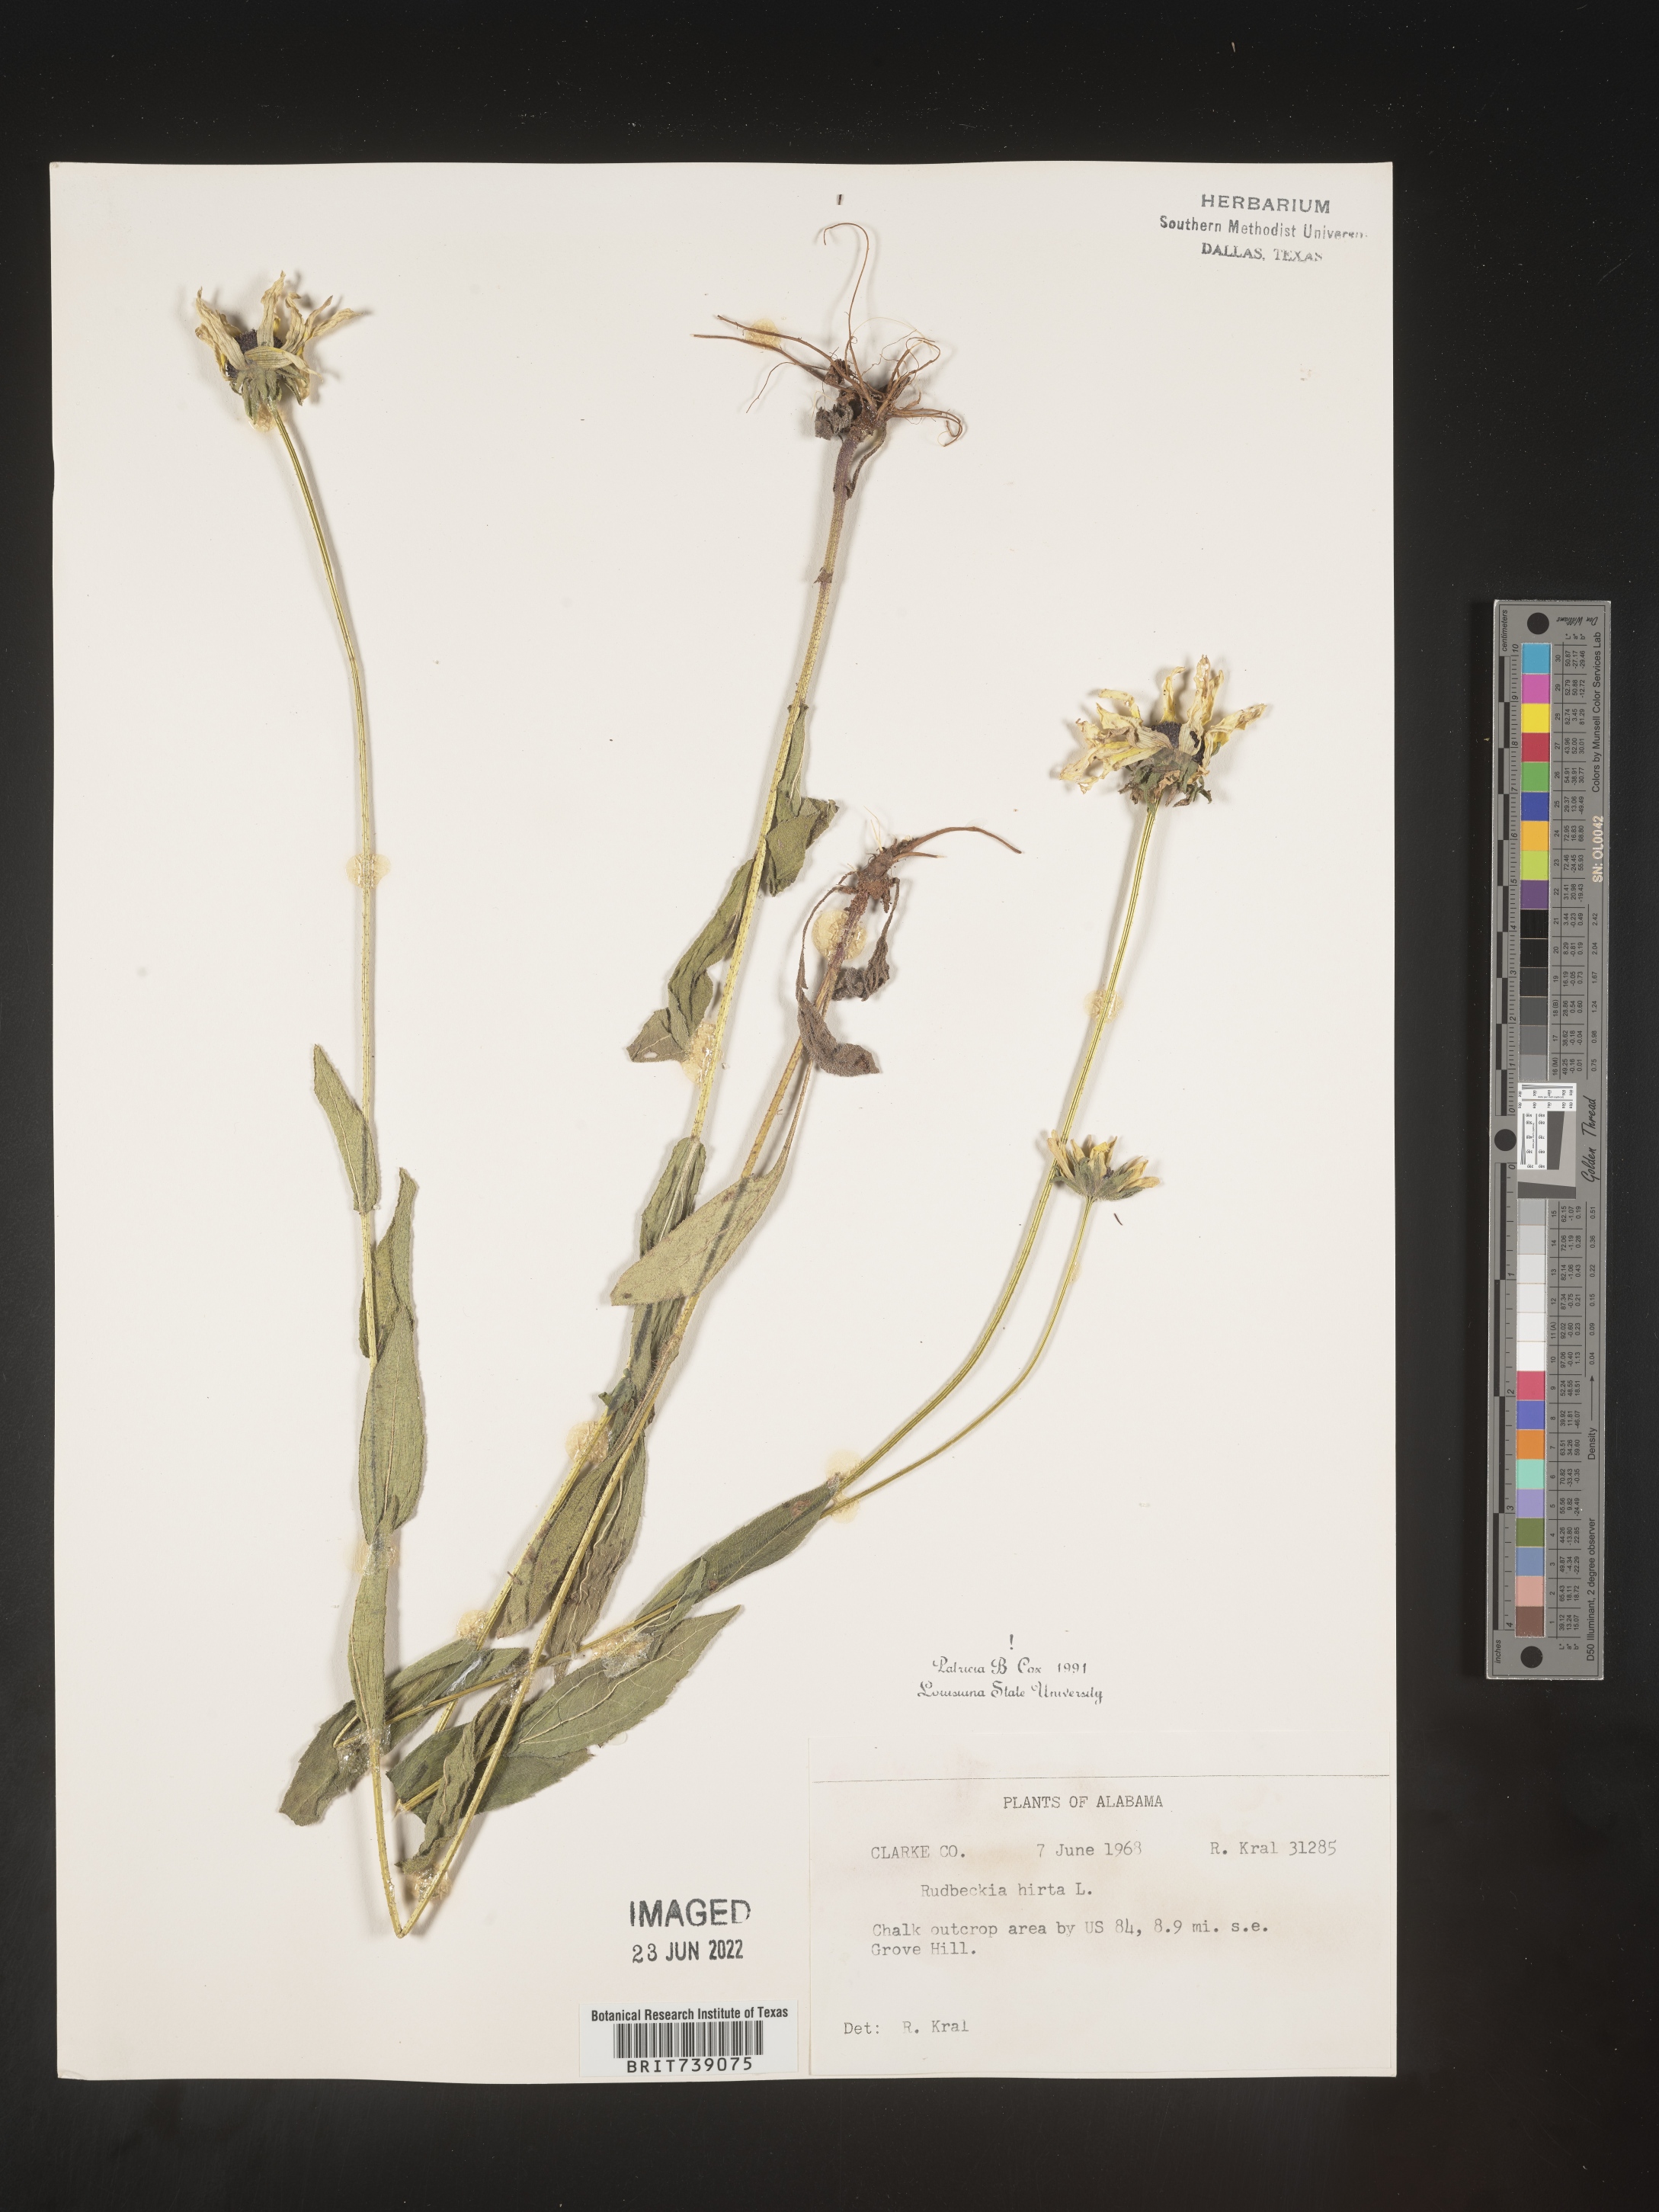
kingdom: Plantae
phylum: Tracheophyta
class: Magnoliopsida
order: Asterales
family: Asteraceae
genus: Rudbeckia
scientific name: Rudbeckia hirta
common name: Black-eyed-susan
